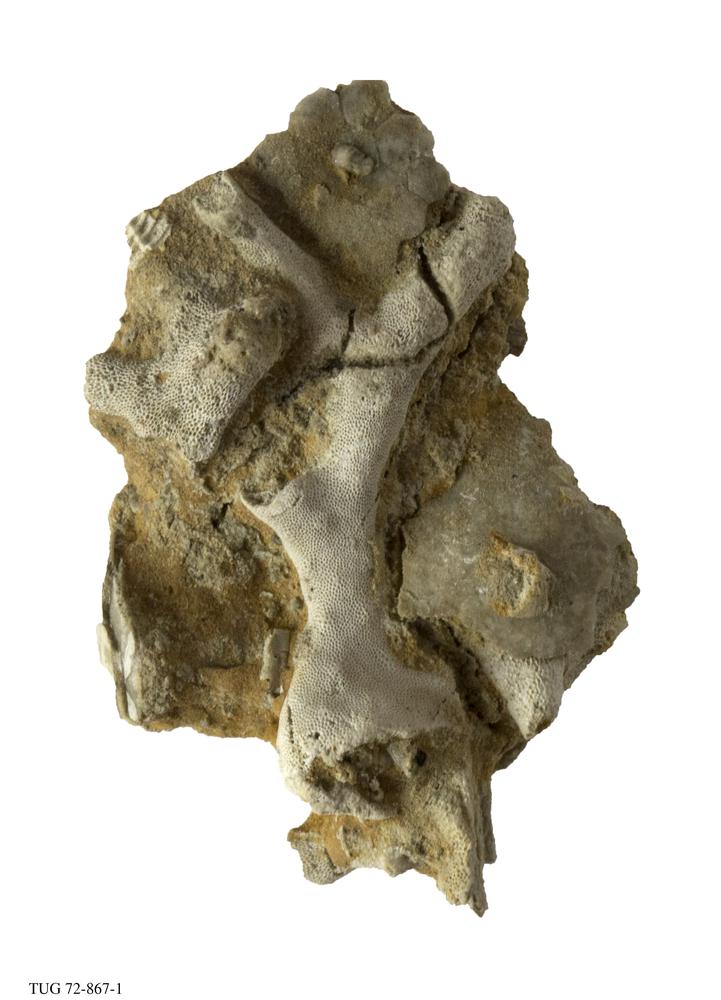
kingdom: Animalia
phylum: Bryozoa
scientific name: Bryozoa
